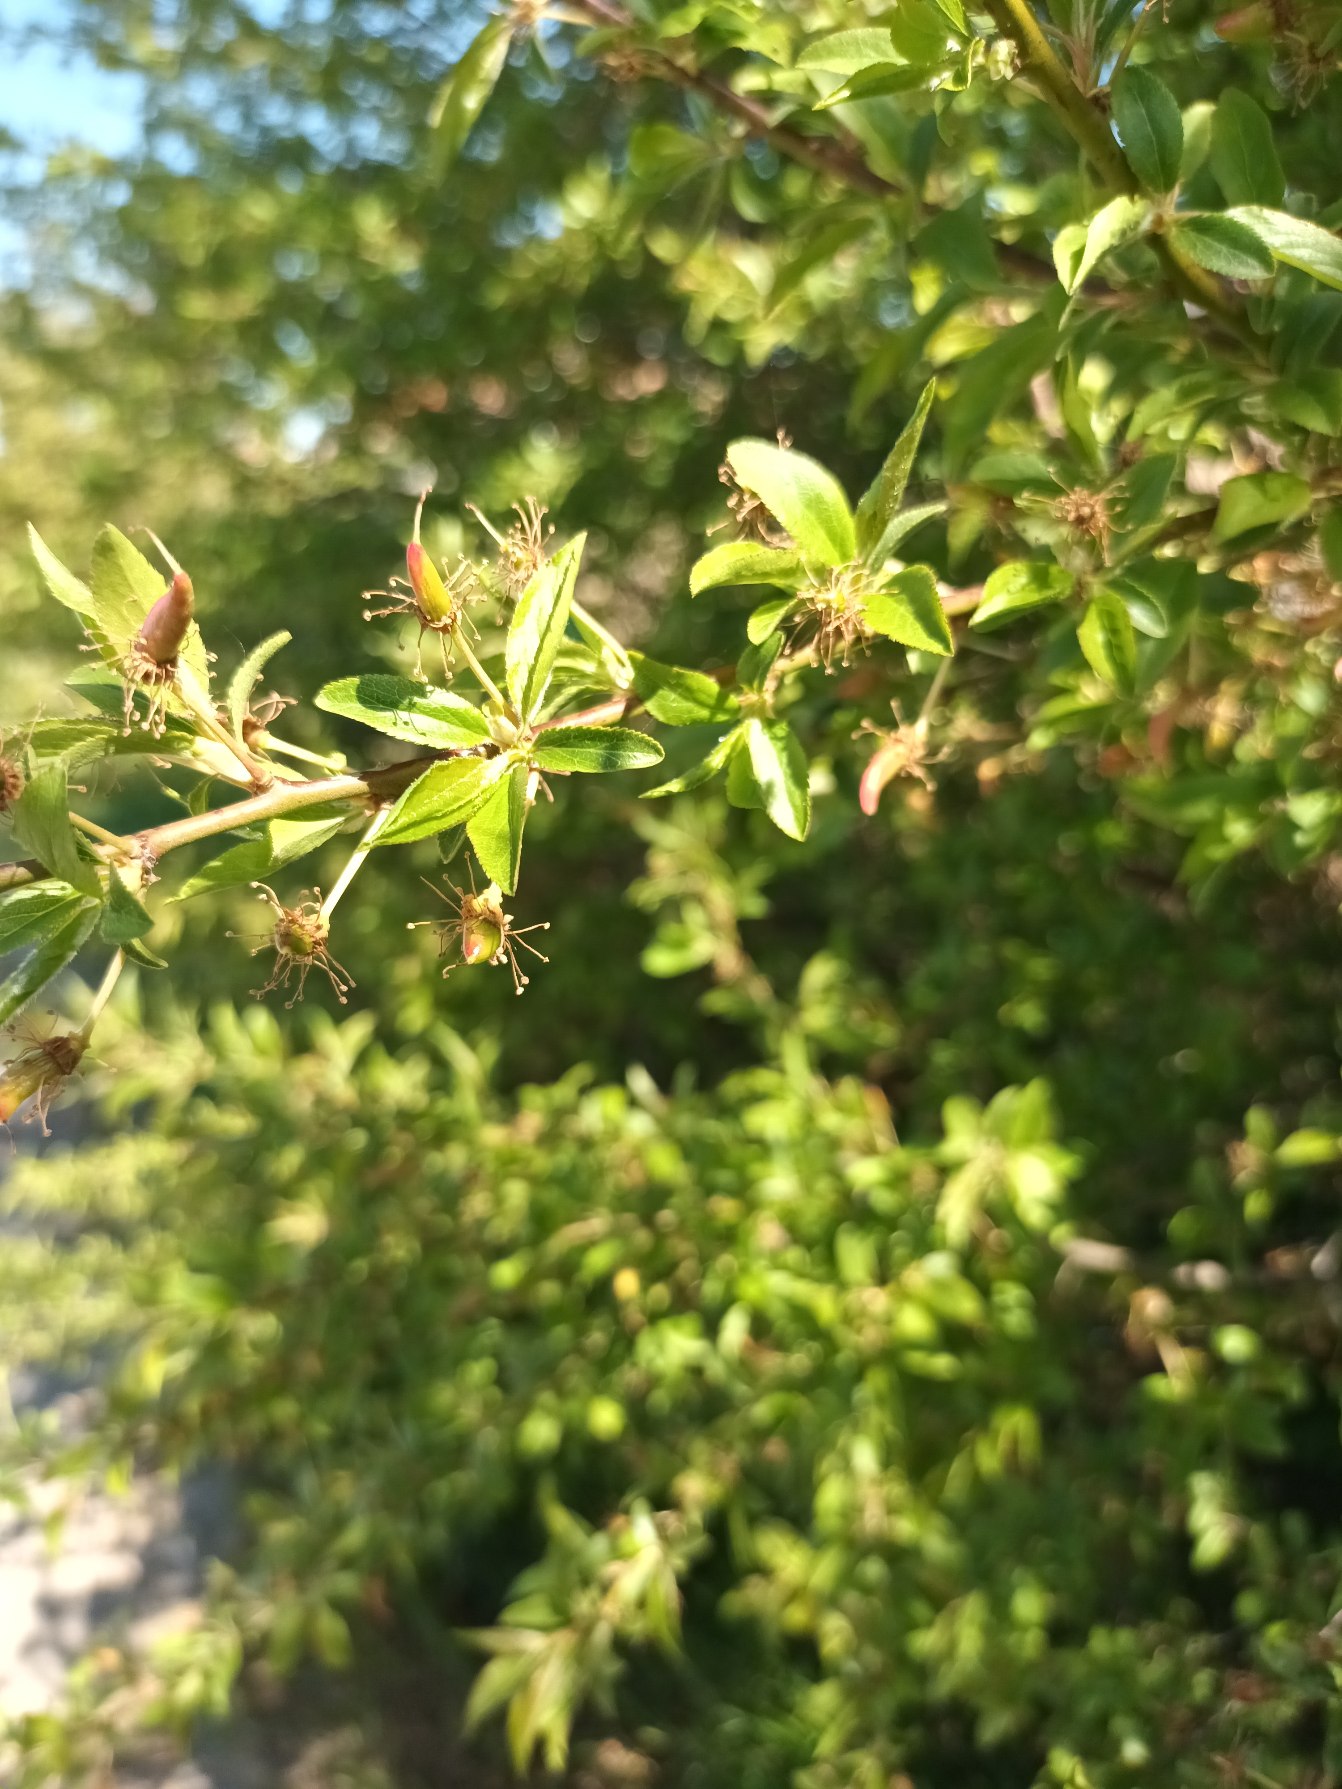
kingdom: Plantae
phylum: Tracheophyta
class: Magnoliopsida
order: Rosales
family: Rosaceae
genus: Prunus
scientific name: Prunus cerasifera
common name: Mirabel
